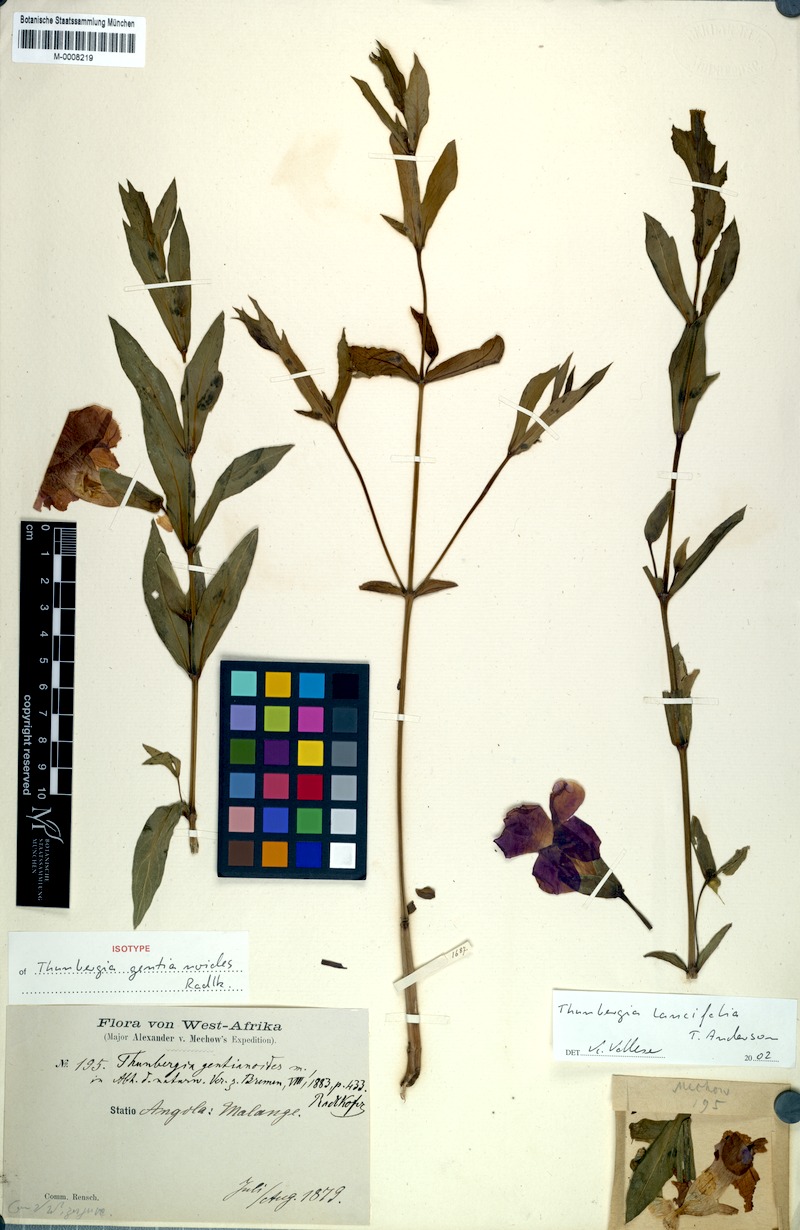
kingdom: Plantae
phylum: Tracheophyta
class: Magnoliopsida
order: Lamiales
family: Acanthaceae
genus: Thunbergia
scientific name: Thunbergia lancifolia
